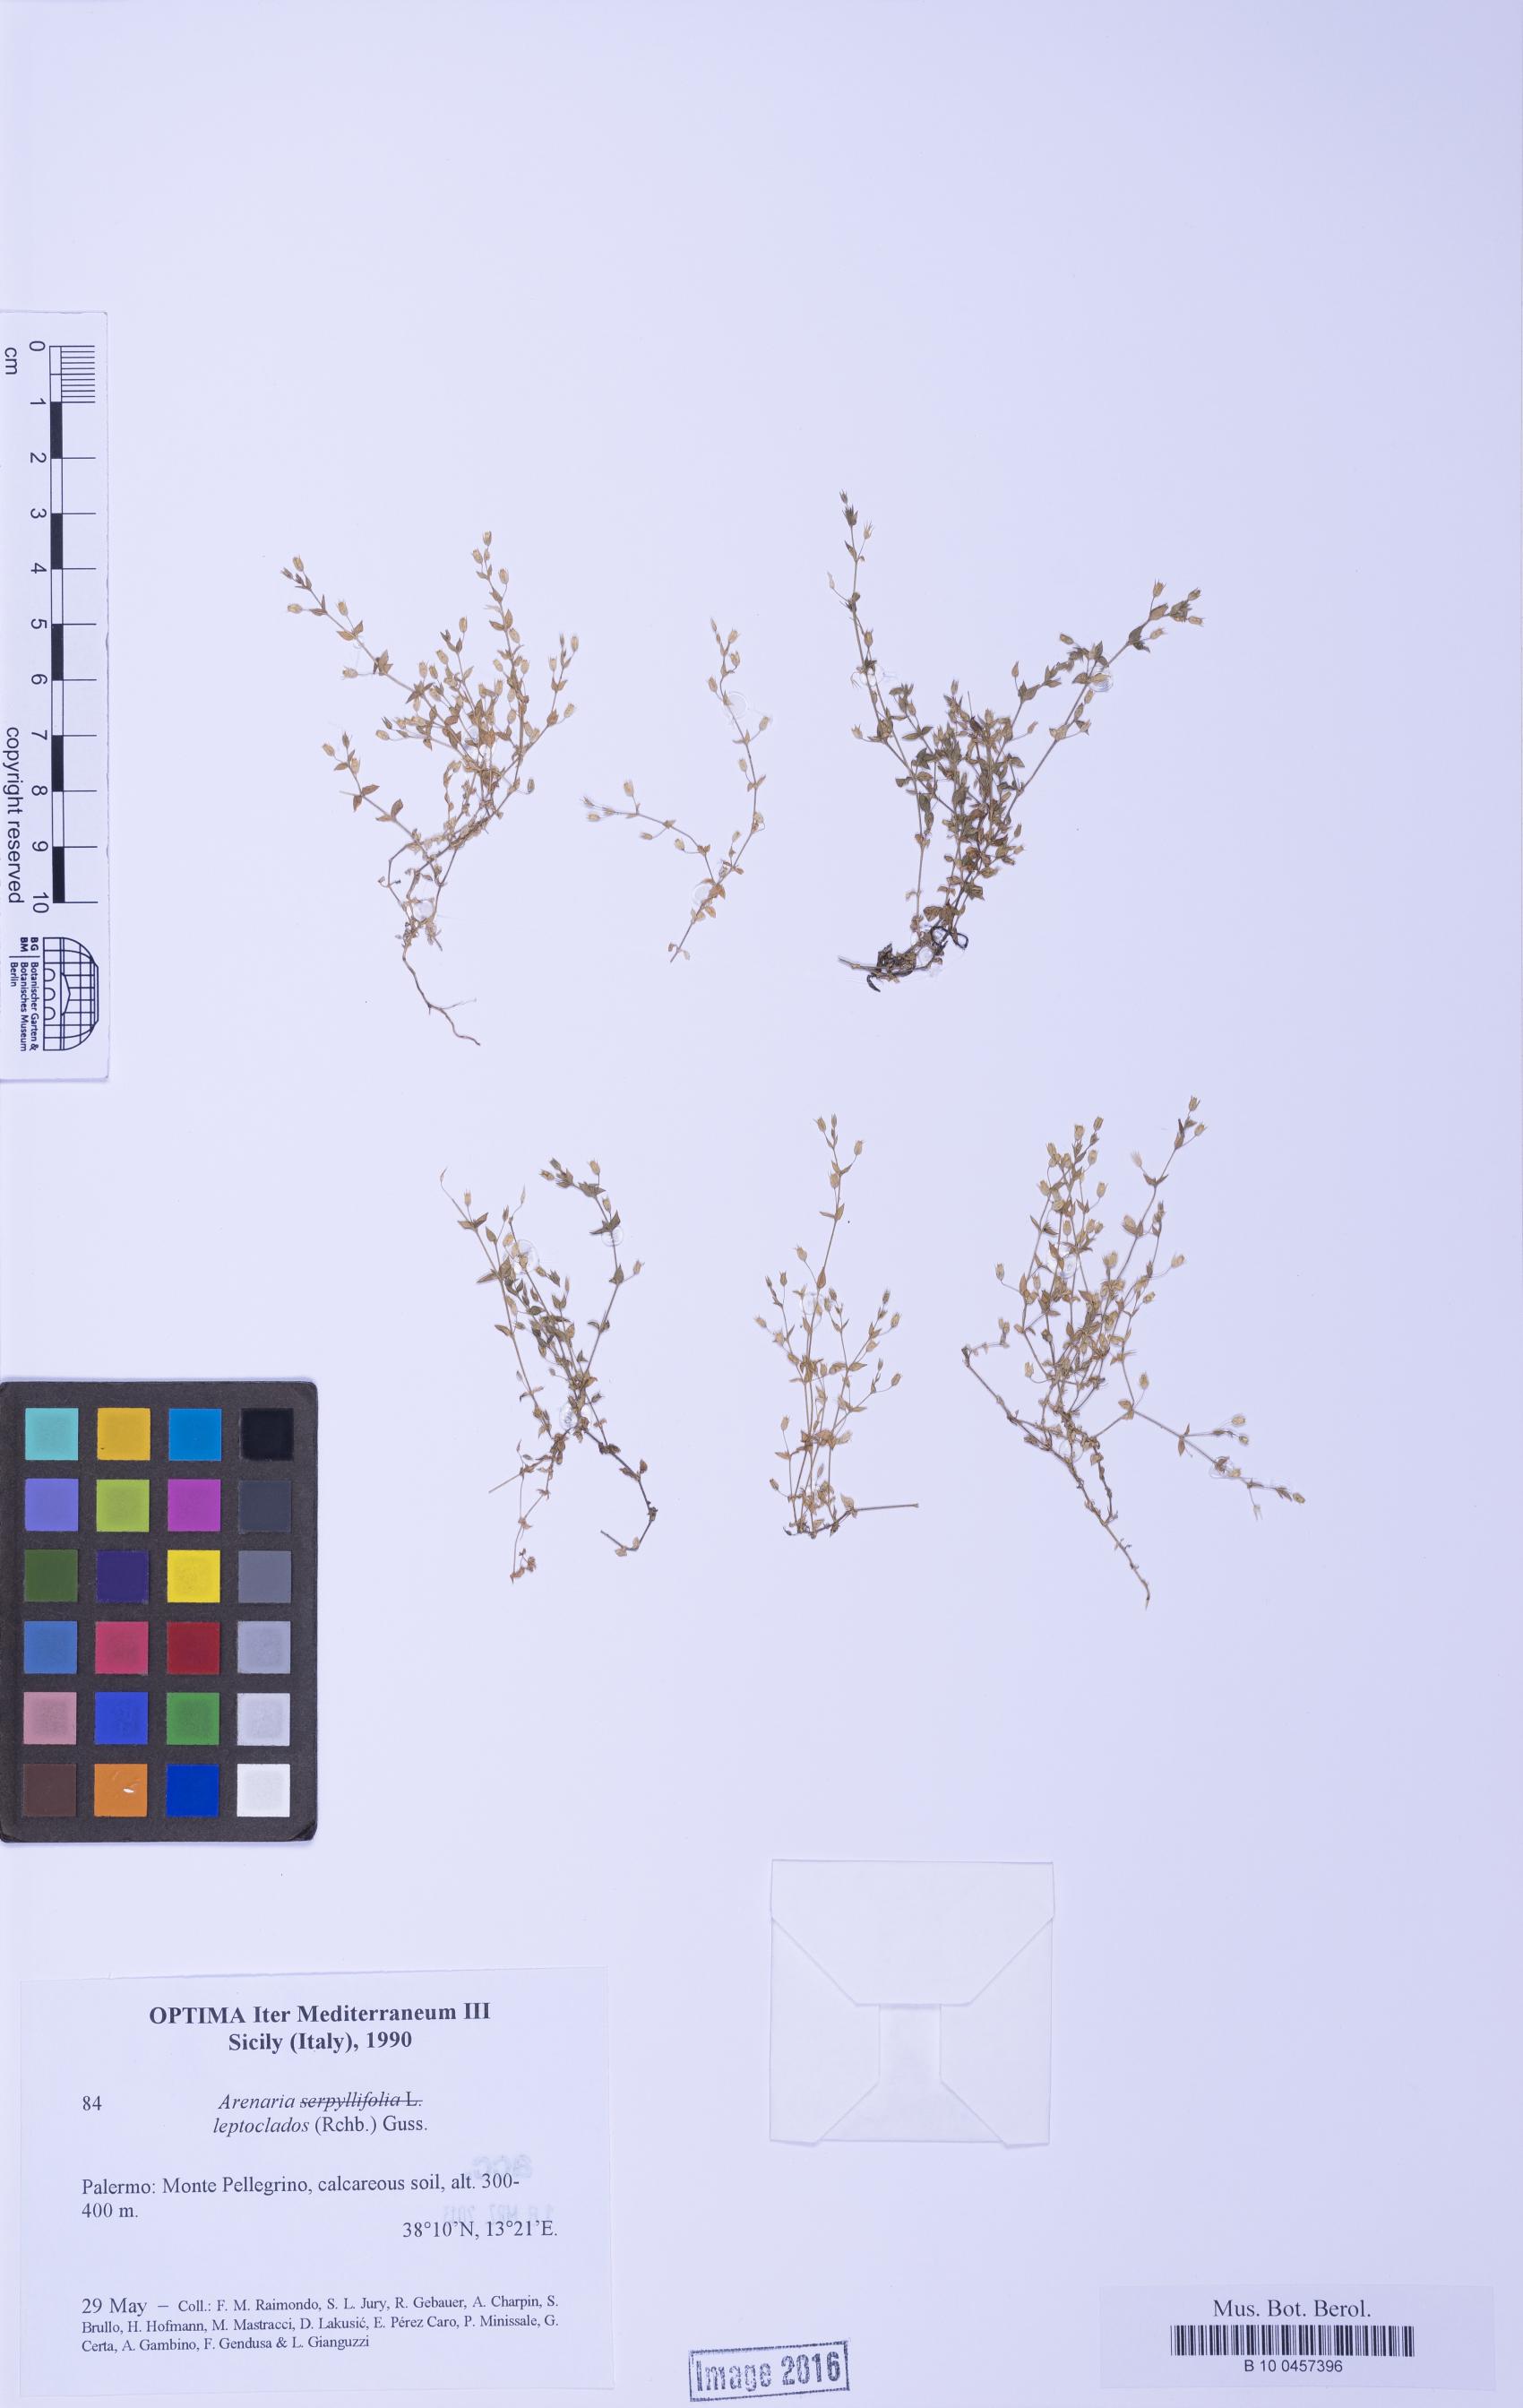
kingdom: Plantae
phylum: Tracheophyta
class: Magnoliopsida
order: Caryophyllales
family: Caryophyllaceae
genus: Arenaria
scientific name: Arenaria leptoclados
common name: Thyme-leaved sandwort
